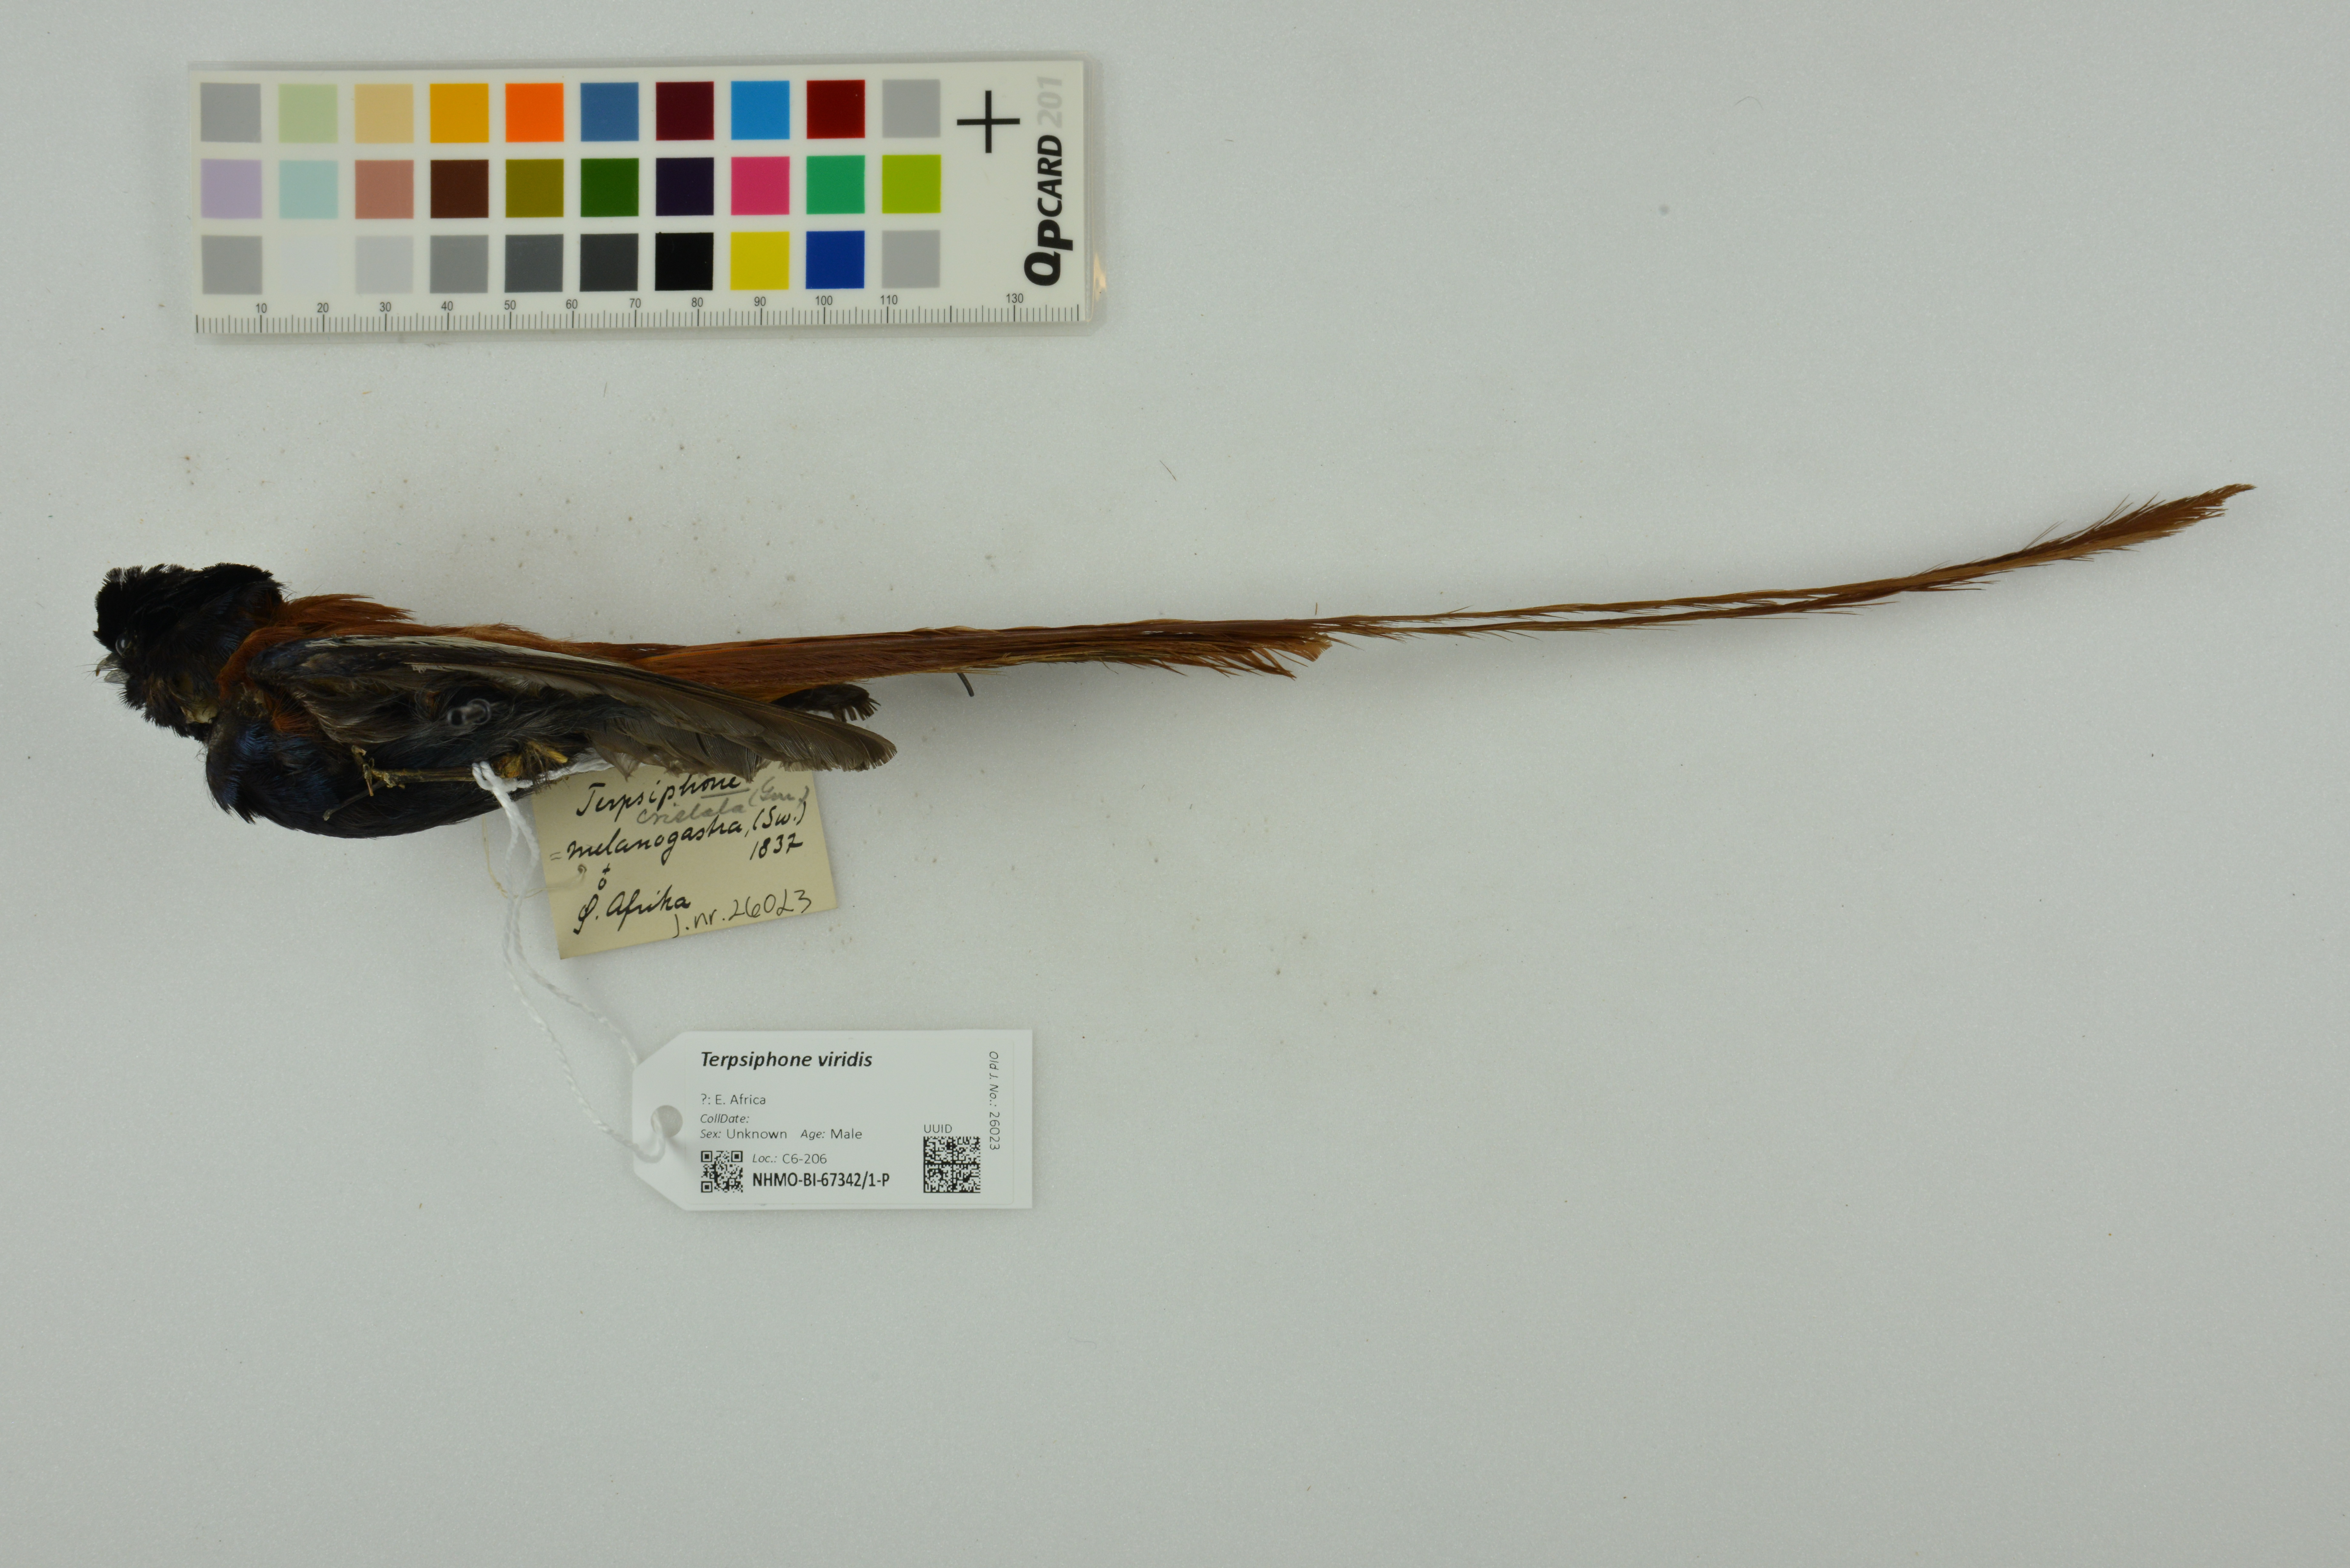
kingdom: Animalia
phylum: Chordata
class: Aves
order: Passeriformes
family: Monarchidae
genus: Terpsiphone
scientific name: Terpsiphone viridis
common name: African paradise flycatcher
